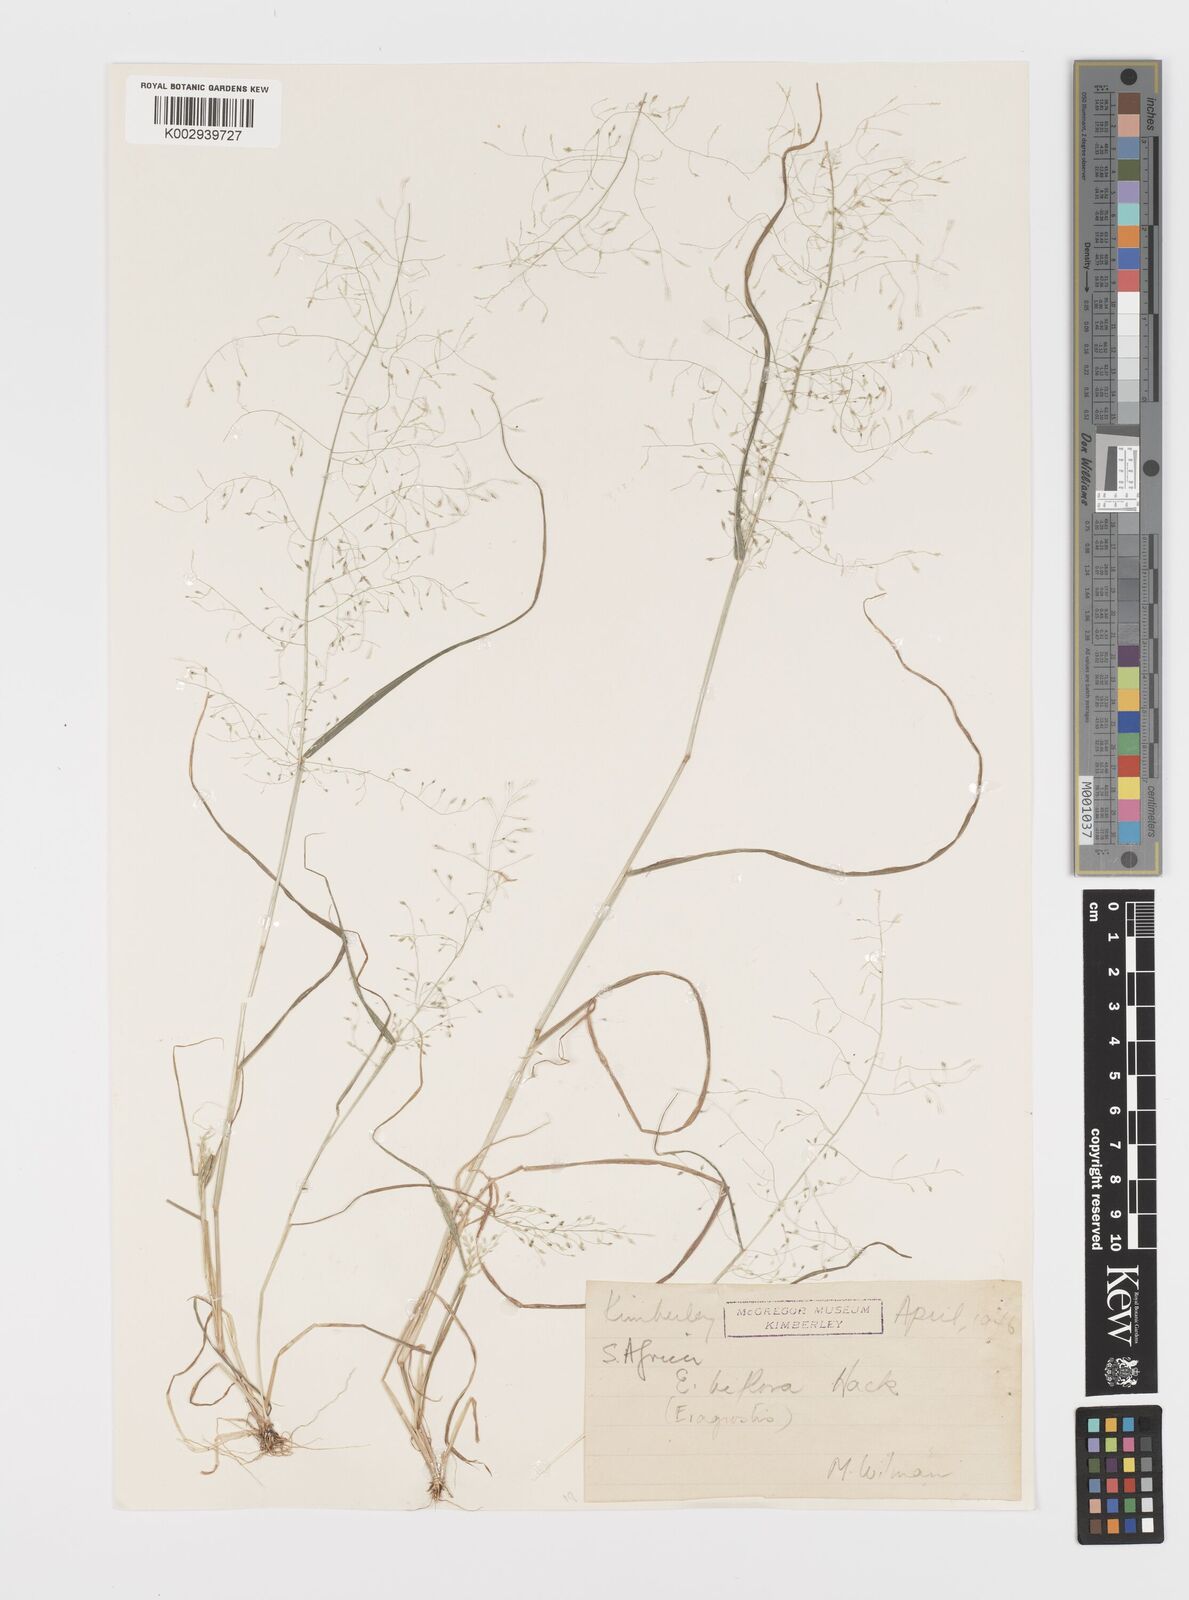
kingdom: Plantae
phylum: Tracheophyta
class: Liliopsida
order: Poales
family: Poaceae
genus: Eragrostis
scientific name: Eragrostis biflora
